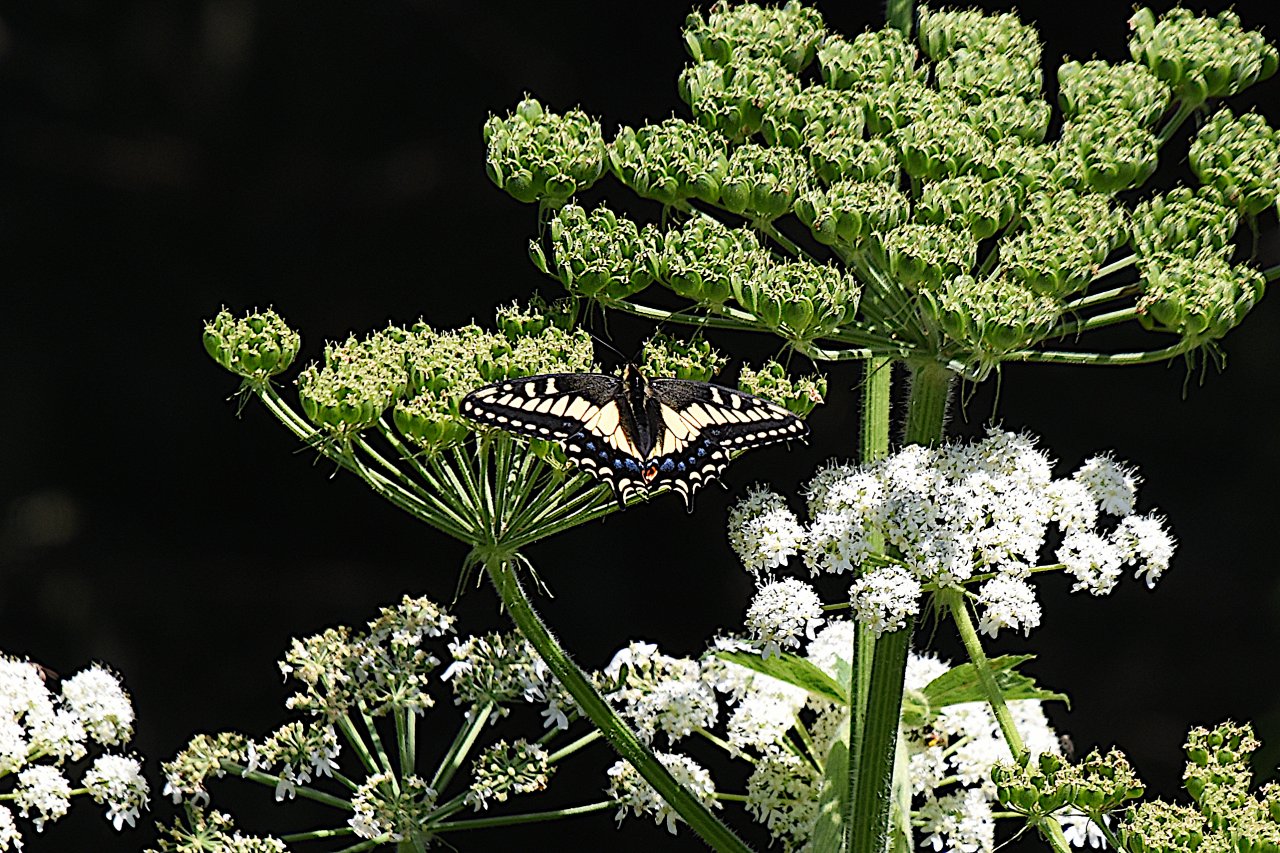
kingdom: Animalia
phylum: Arthropoda
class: Insecta
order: Lepidoptera
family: Papilionidae
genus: Papilio
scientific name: Papilio zelicaon
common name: Anise Swallowtail
